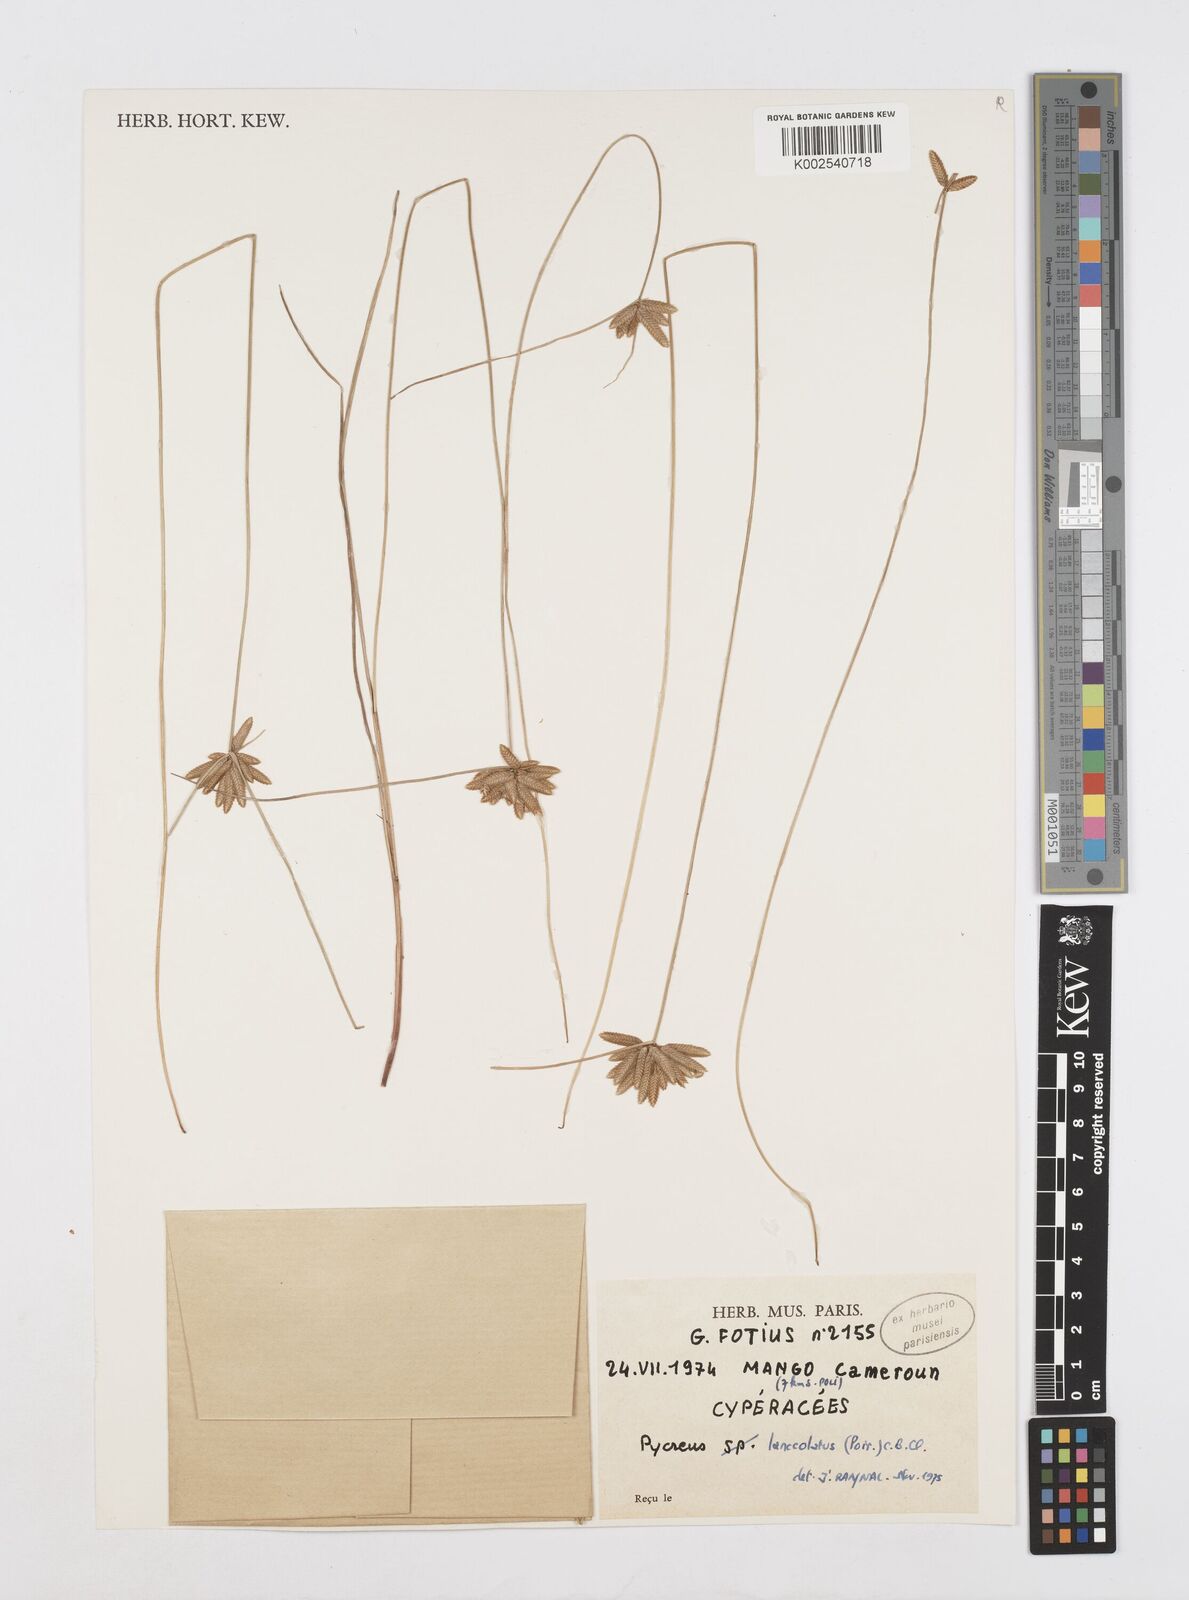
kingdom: Plantae
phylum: Tracheophyta
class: Liliopsida
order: Poales
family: Cyperaceae
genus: Cyperus
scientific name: Cyperus
